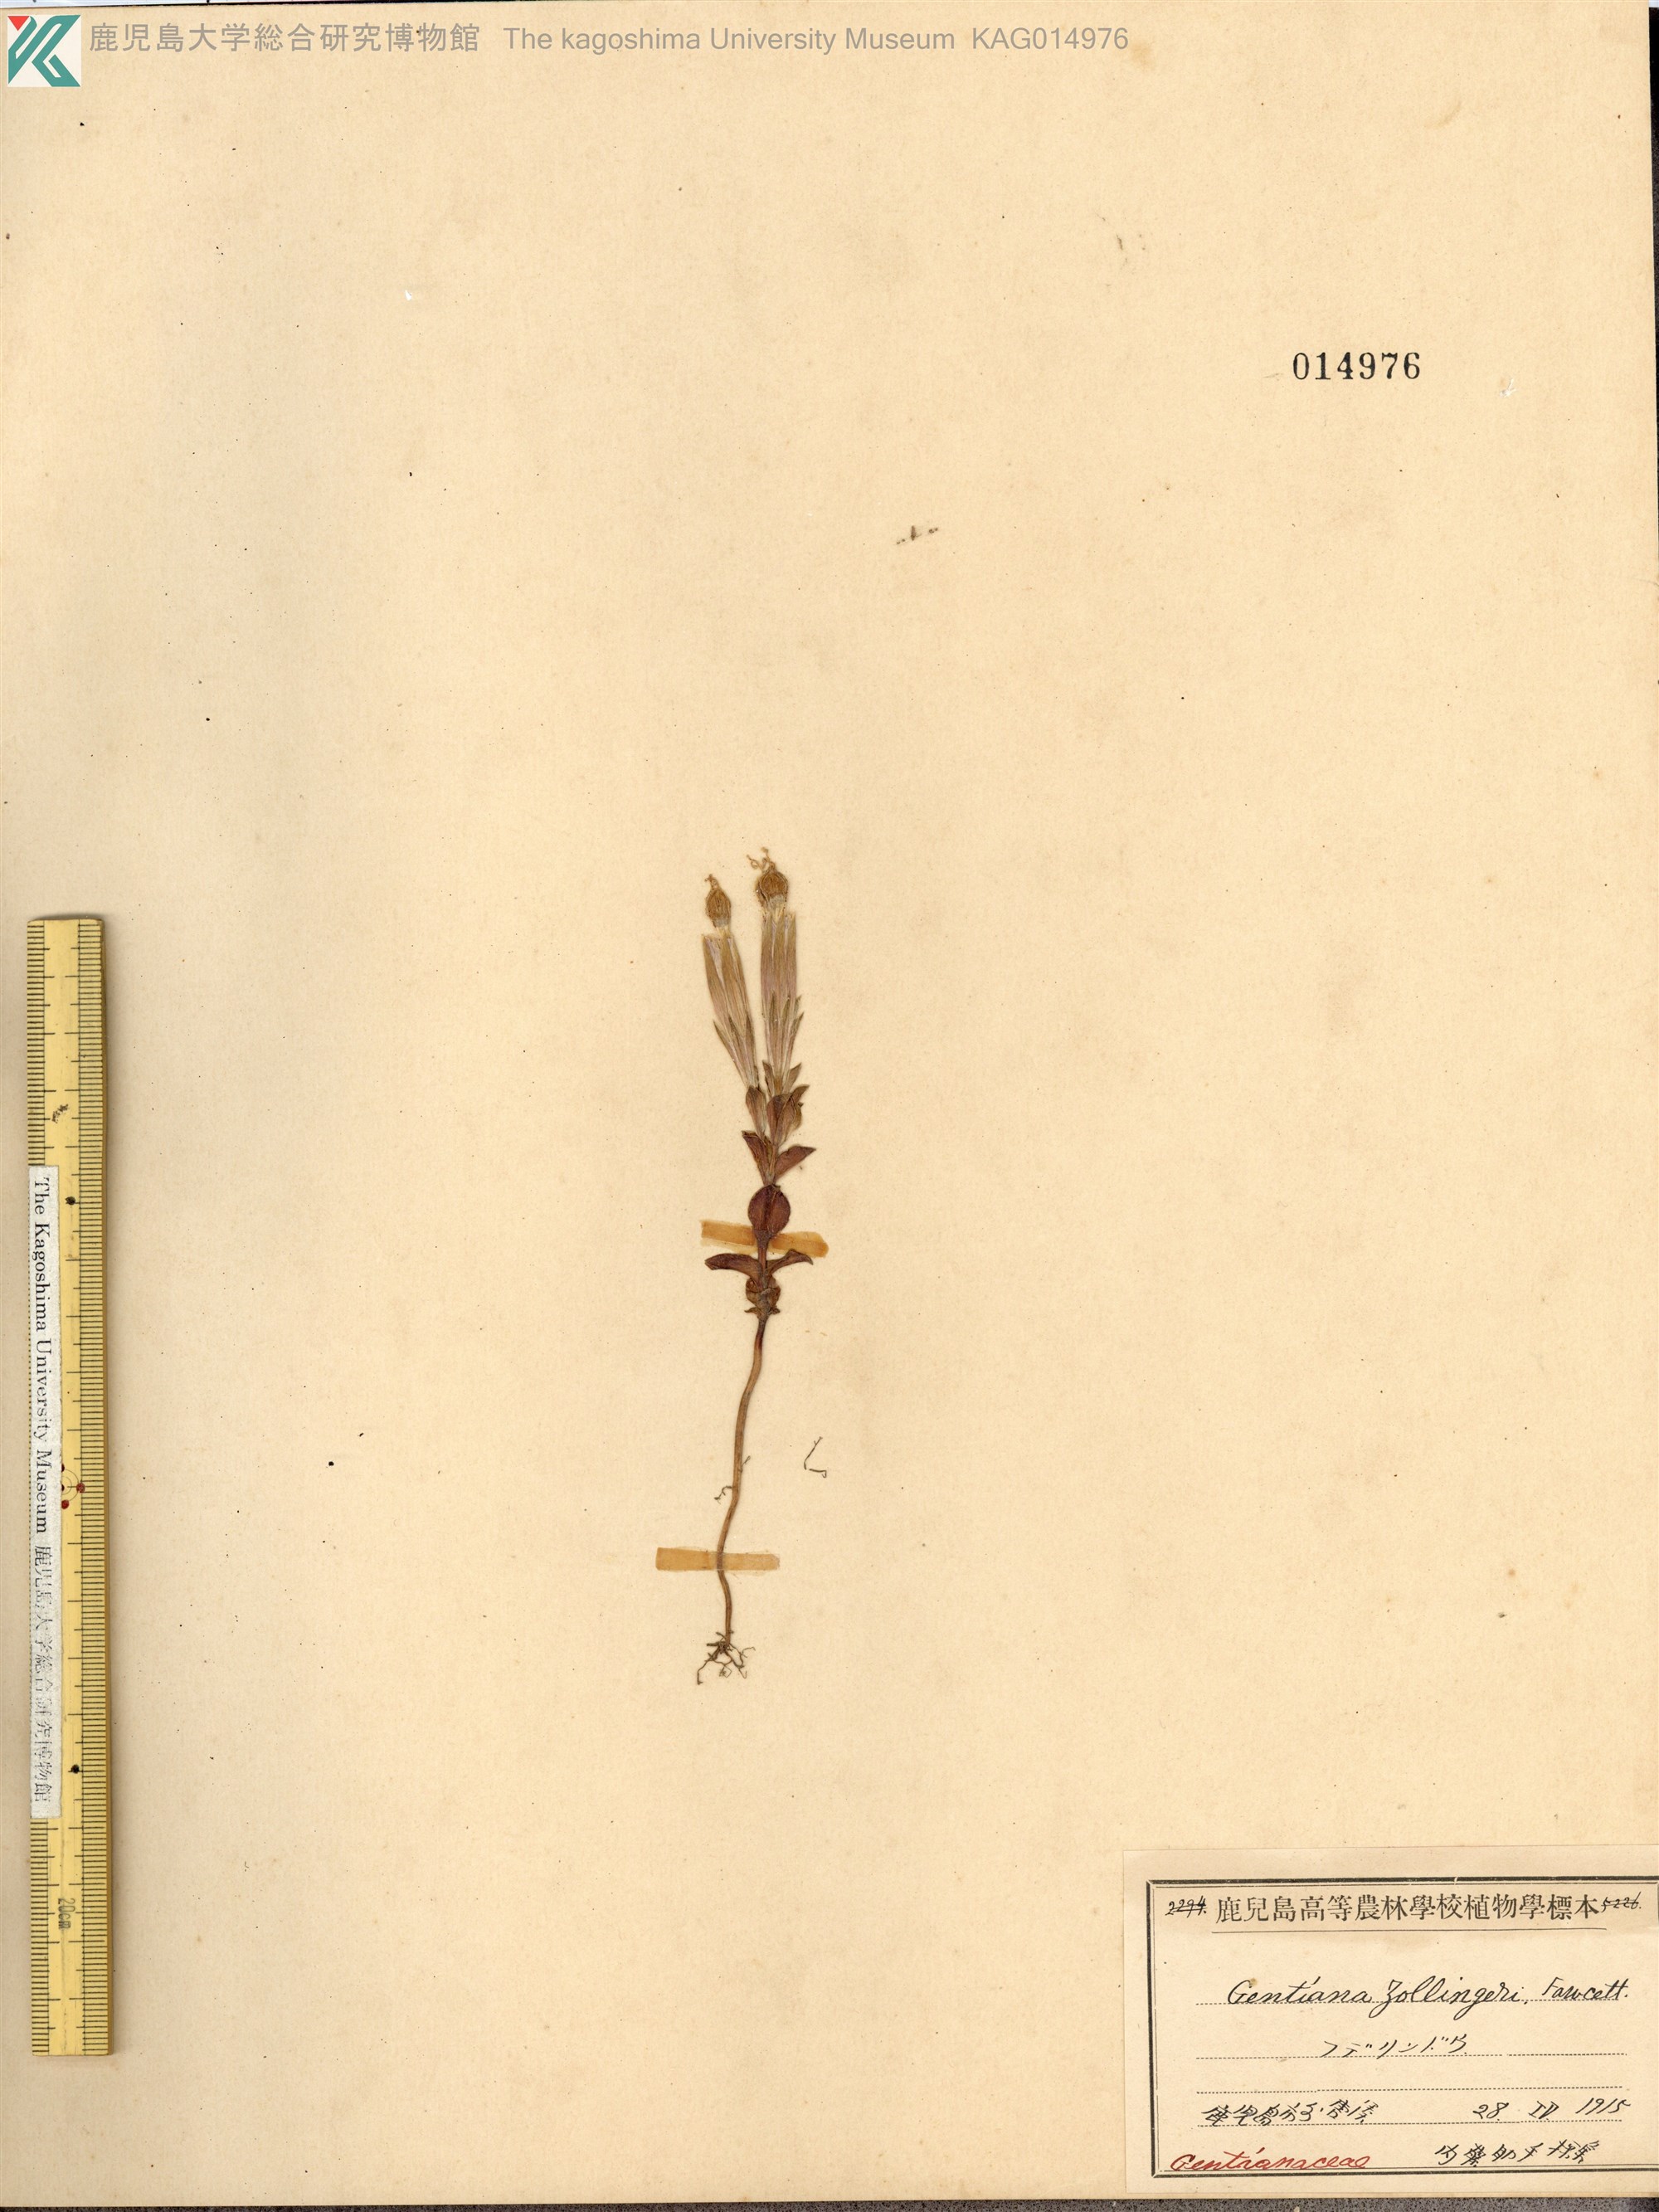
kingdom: Plantae
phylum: Tracheophyta
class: Magnoliopsida
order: Gentianales
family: Gentianaceae
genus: Gentiana
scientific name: Gentiana zollingeri
